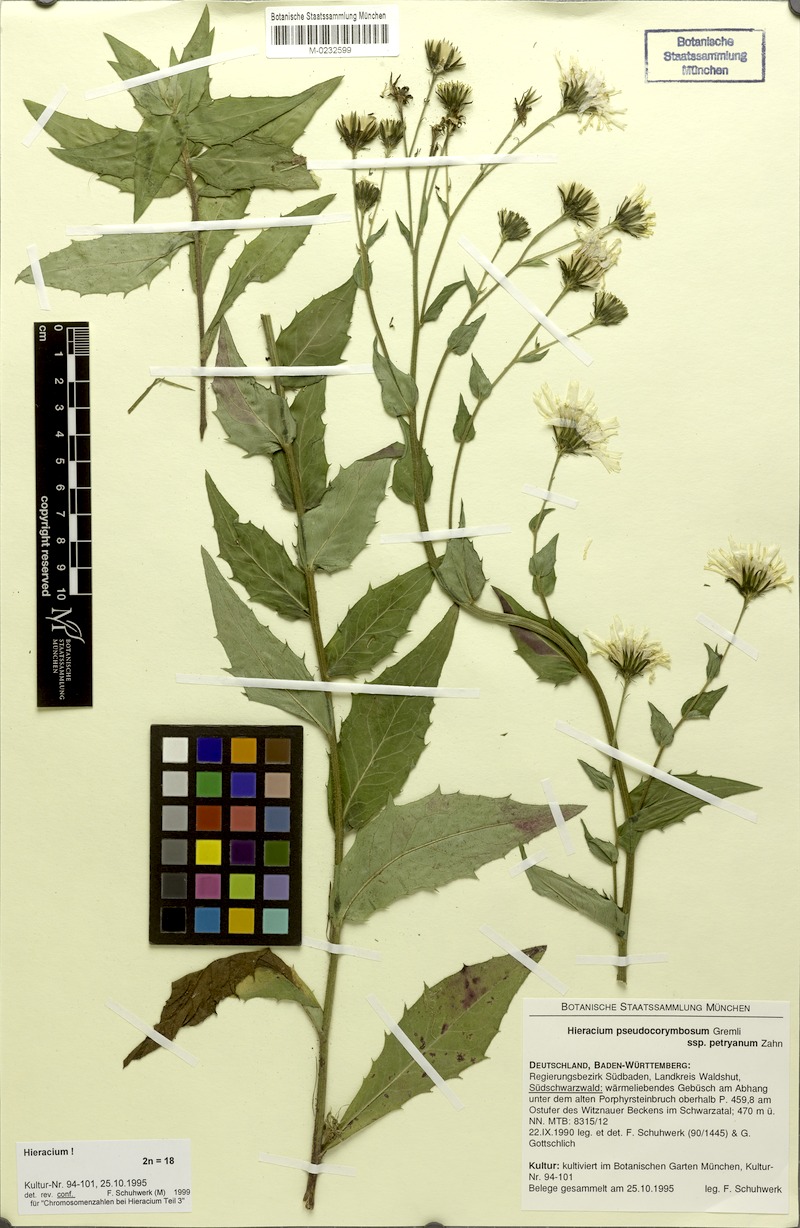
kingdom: Plantae
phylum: Tracheophyta
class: Magnoliopsida
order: Asterales
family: Asteraceae
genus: Hieracium
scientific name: Hieracium pseudocorymbosum
